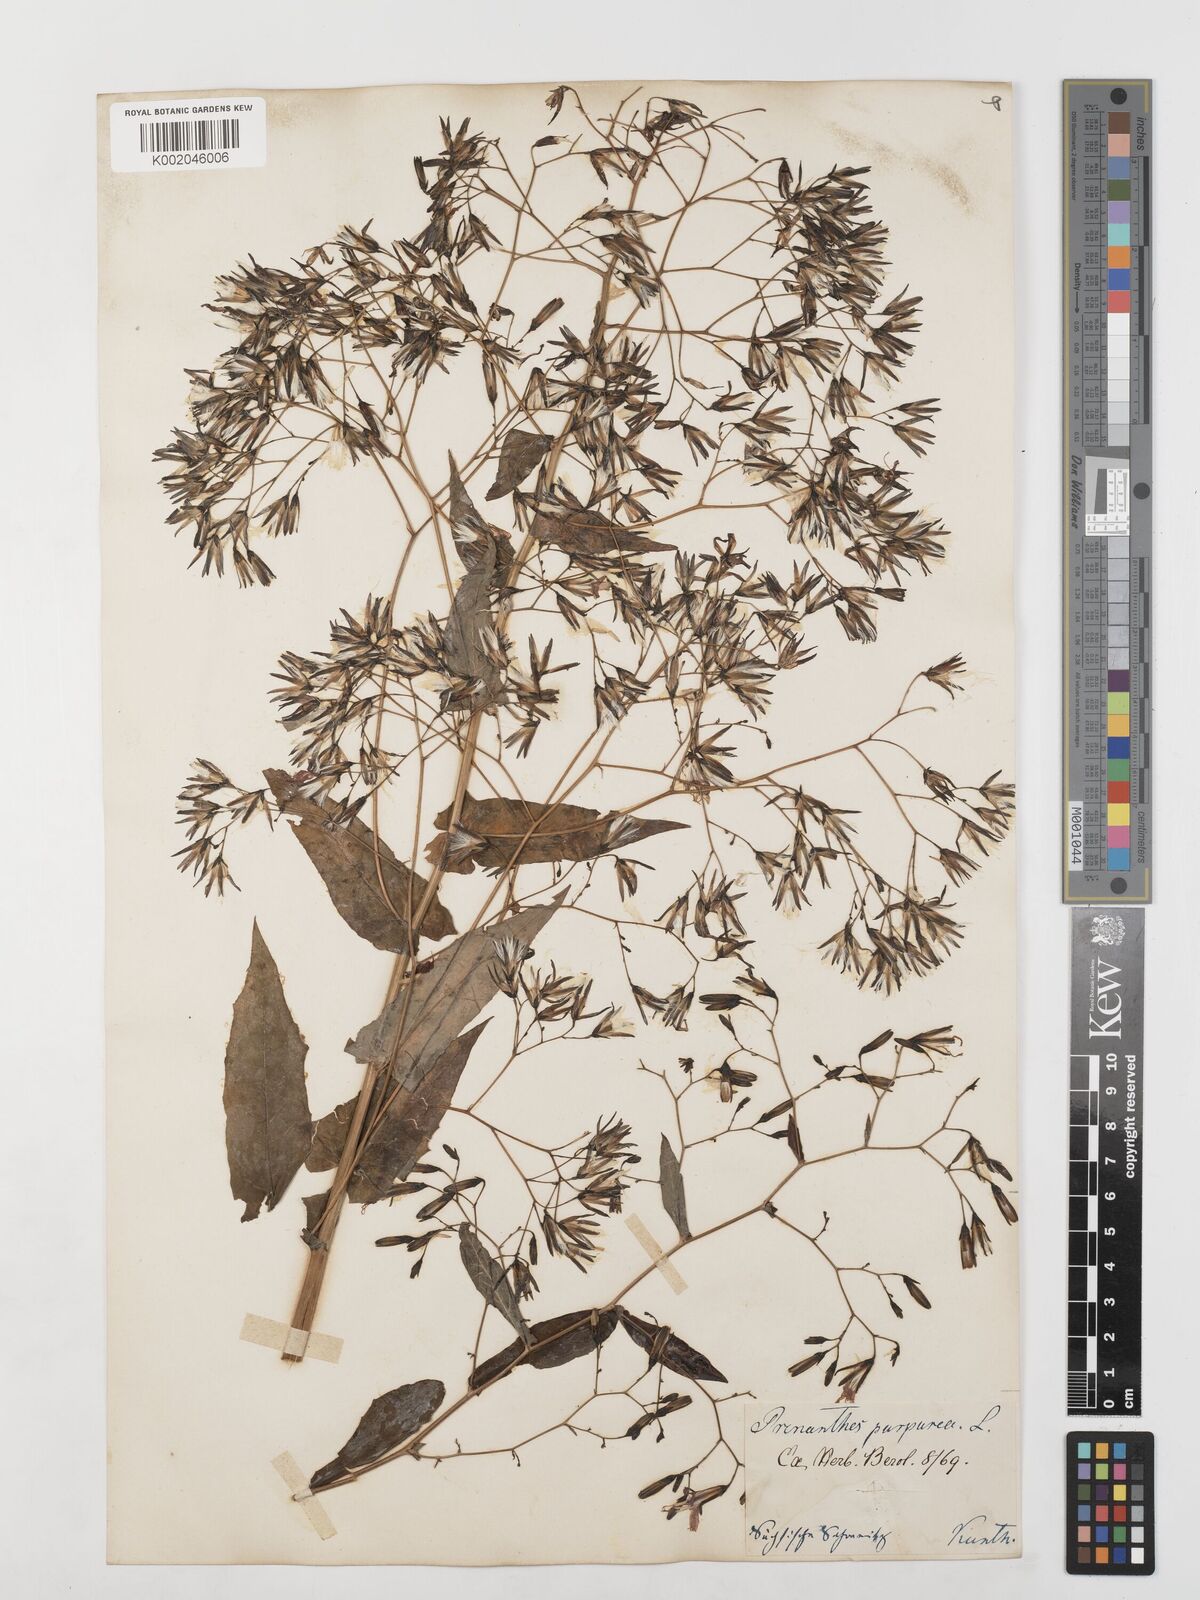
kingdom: Plantae
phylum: Tracheophyta
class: Magnoliopsida
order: Asterales
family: Asteraceae
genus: Prenanthes
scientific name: Prenanthes purpurea
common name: Purple lettuce
